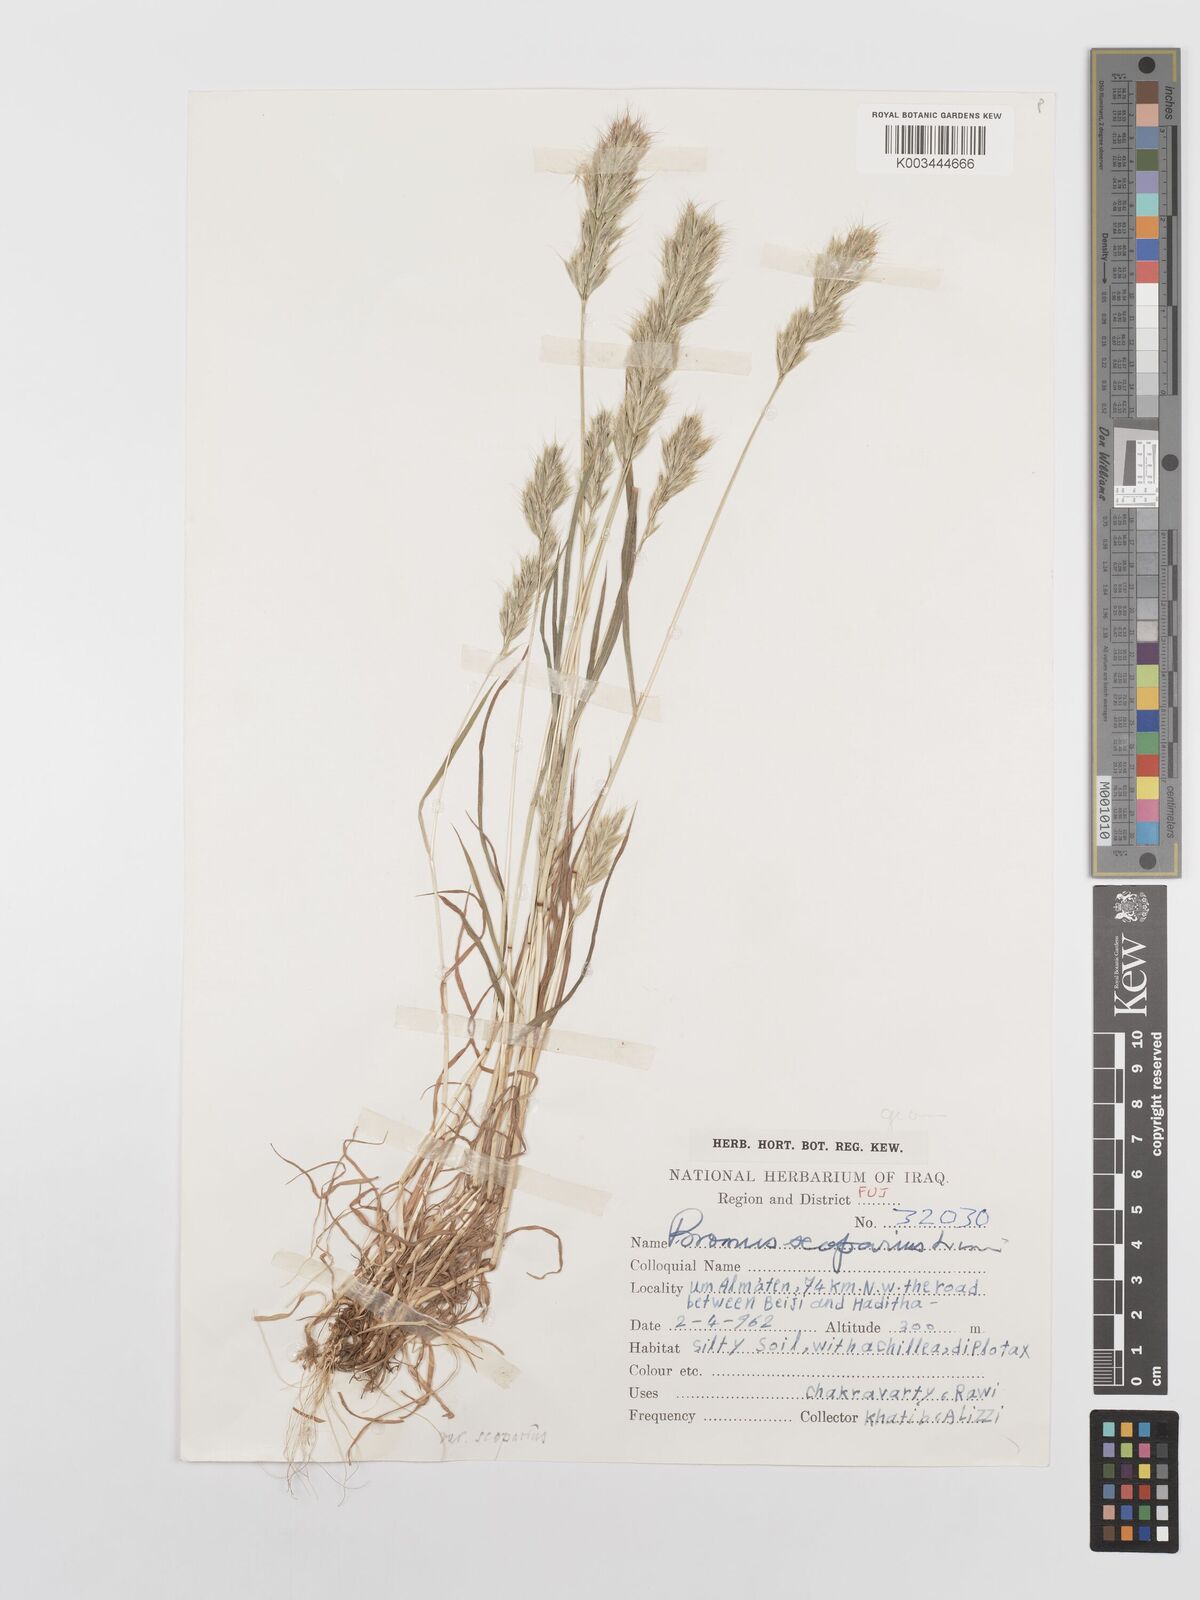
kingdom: Plantae
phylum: Tracheophyta
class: Liliopsida
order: Poales
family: Poaceae
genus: Bromus
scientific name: Bromus scoparius
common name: Broom brome
